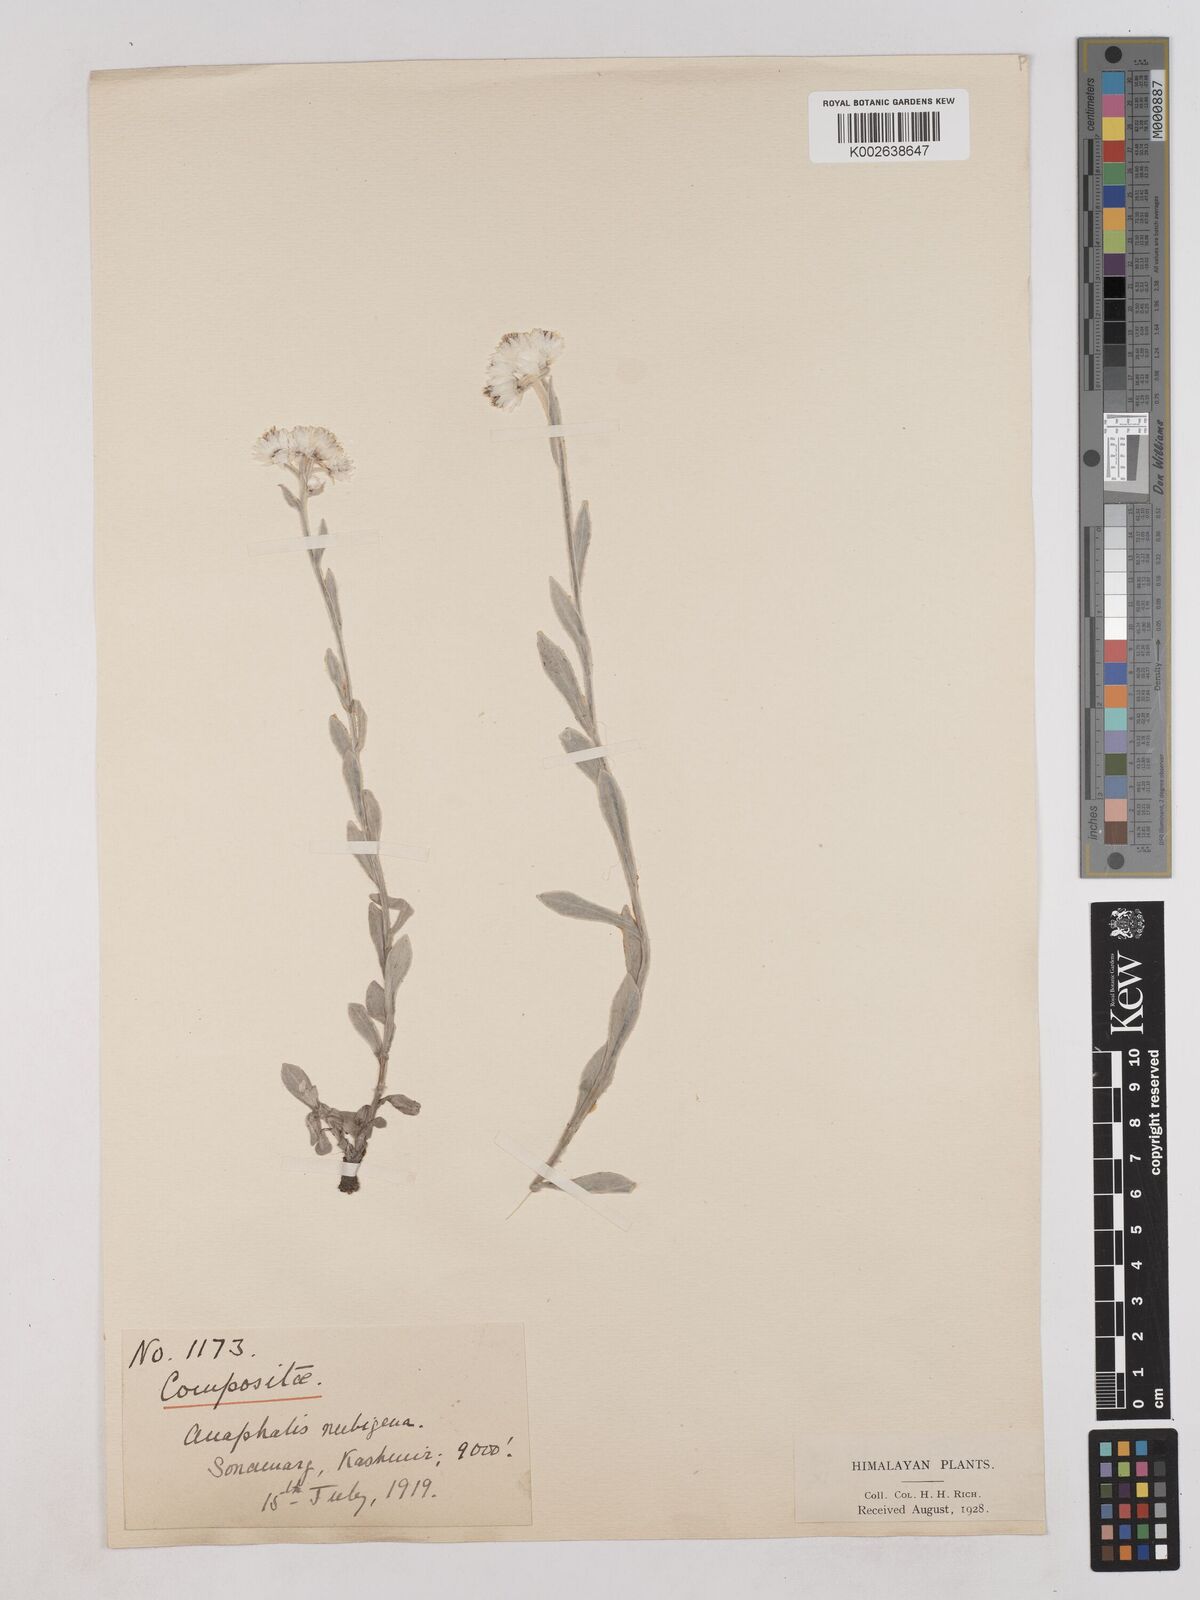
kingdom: Plantae
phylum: Tracheophyta
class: Magnoliopsida
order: Asterales
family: Asteraceae
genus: Anaphalis
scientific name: Anaphalis nepalensis
